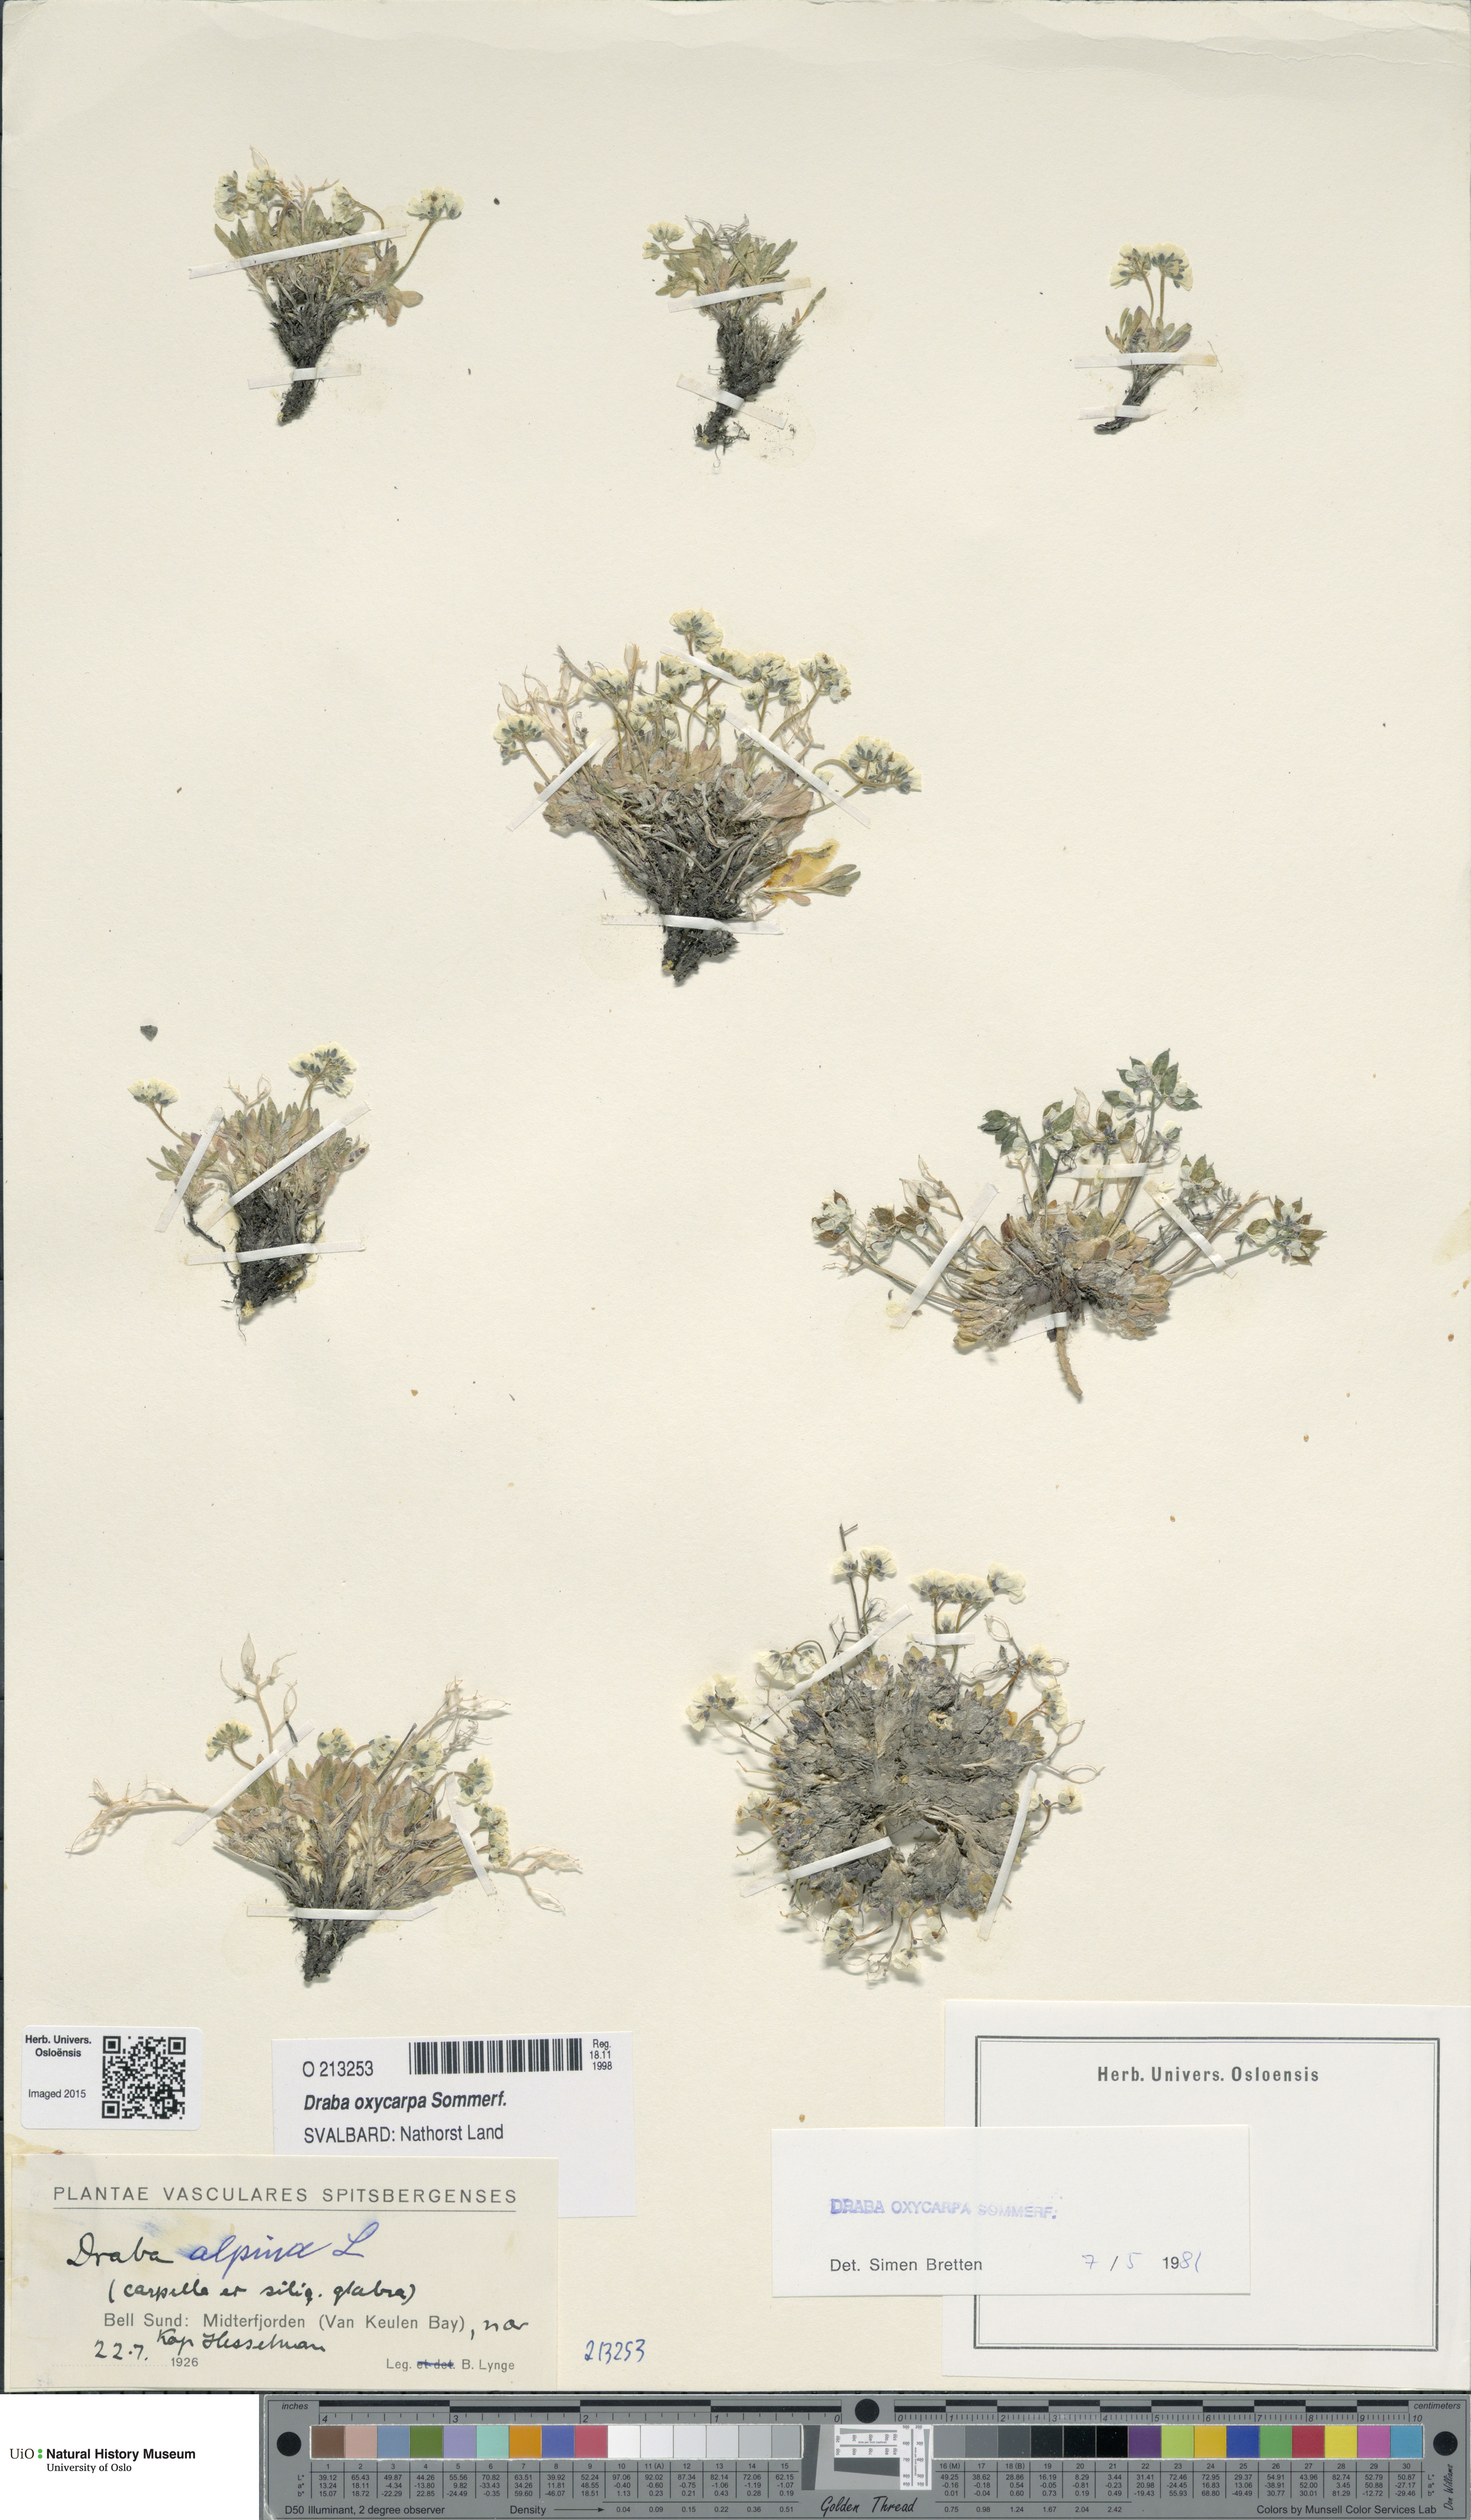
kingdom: Plantae
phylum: Tracheophyta
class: Magnoliopsida
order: Brassicales
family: Brassicaceae
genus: Draba
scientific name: Draba oxycarpa
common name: Sharp-fruited whitlow-grass
